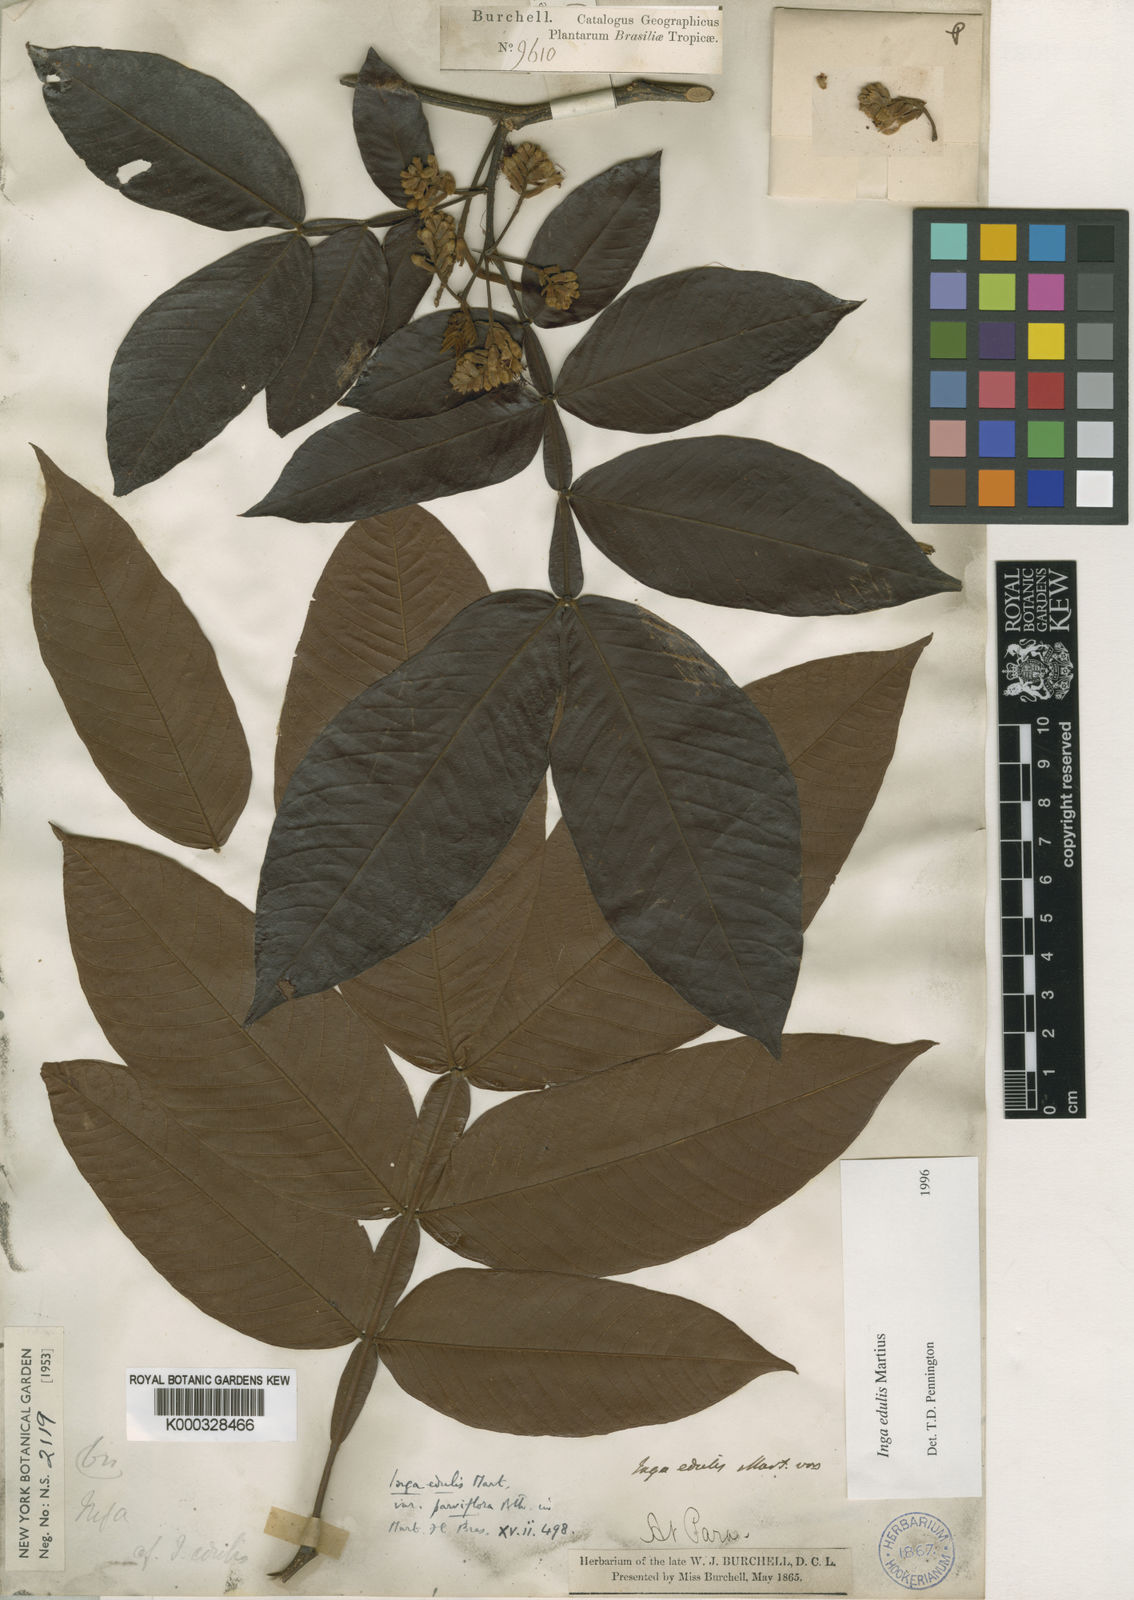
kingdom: Plantae
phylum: Tracheophyta
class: Magnoliopsida
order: Fabales
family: Fabaceae
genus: Inga
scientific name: Inga edulis
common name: Ice cream bean
